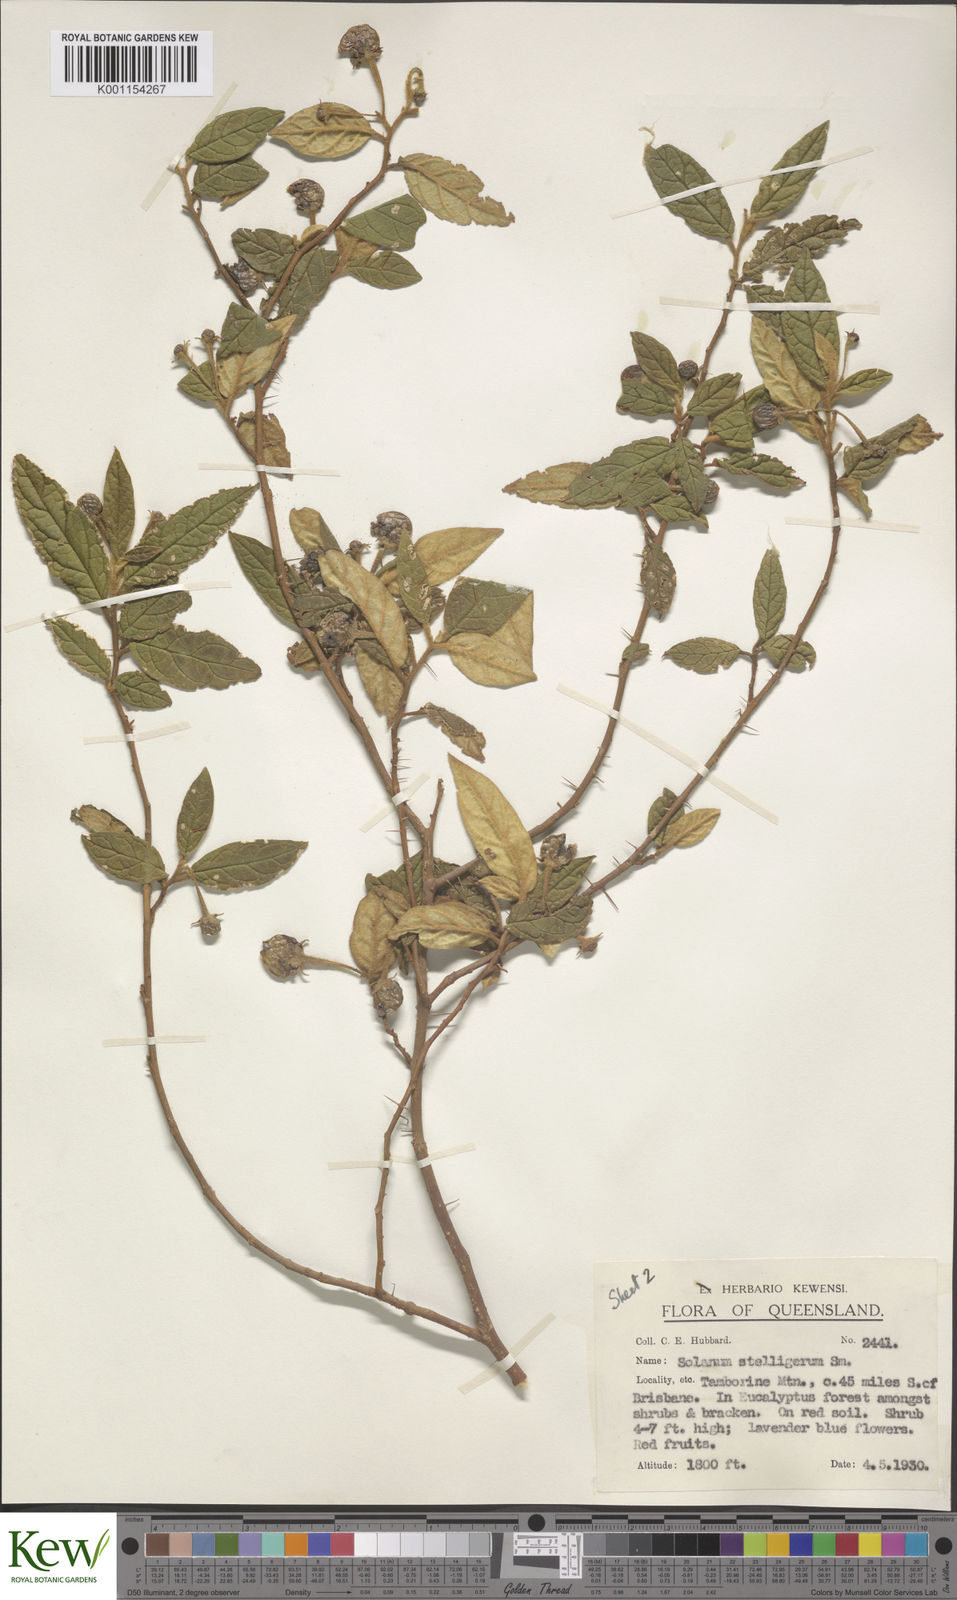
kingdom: Plantae
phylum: Tracheophyta
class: Magnoliopsida
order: Solanales
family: Solanaceae
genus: Solanum
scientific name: Solanum stelligerum
